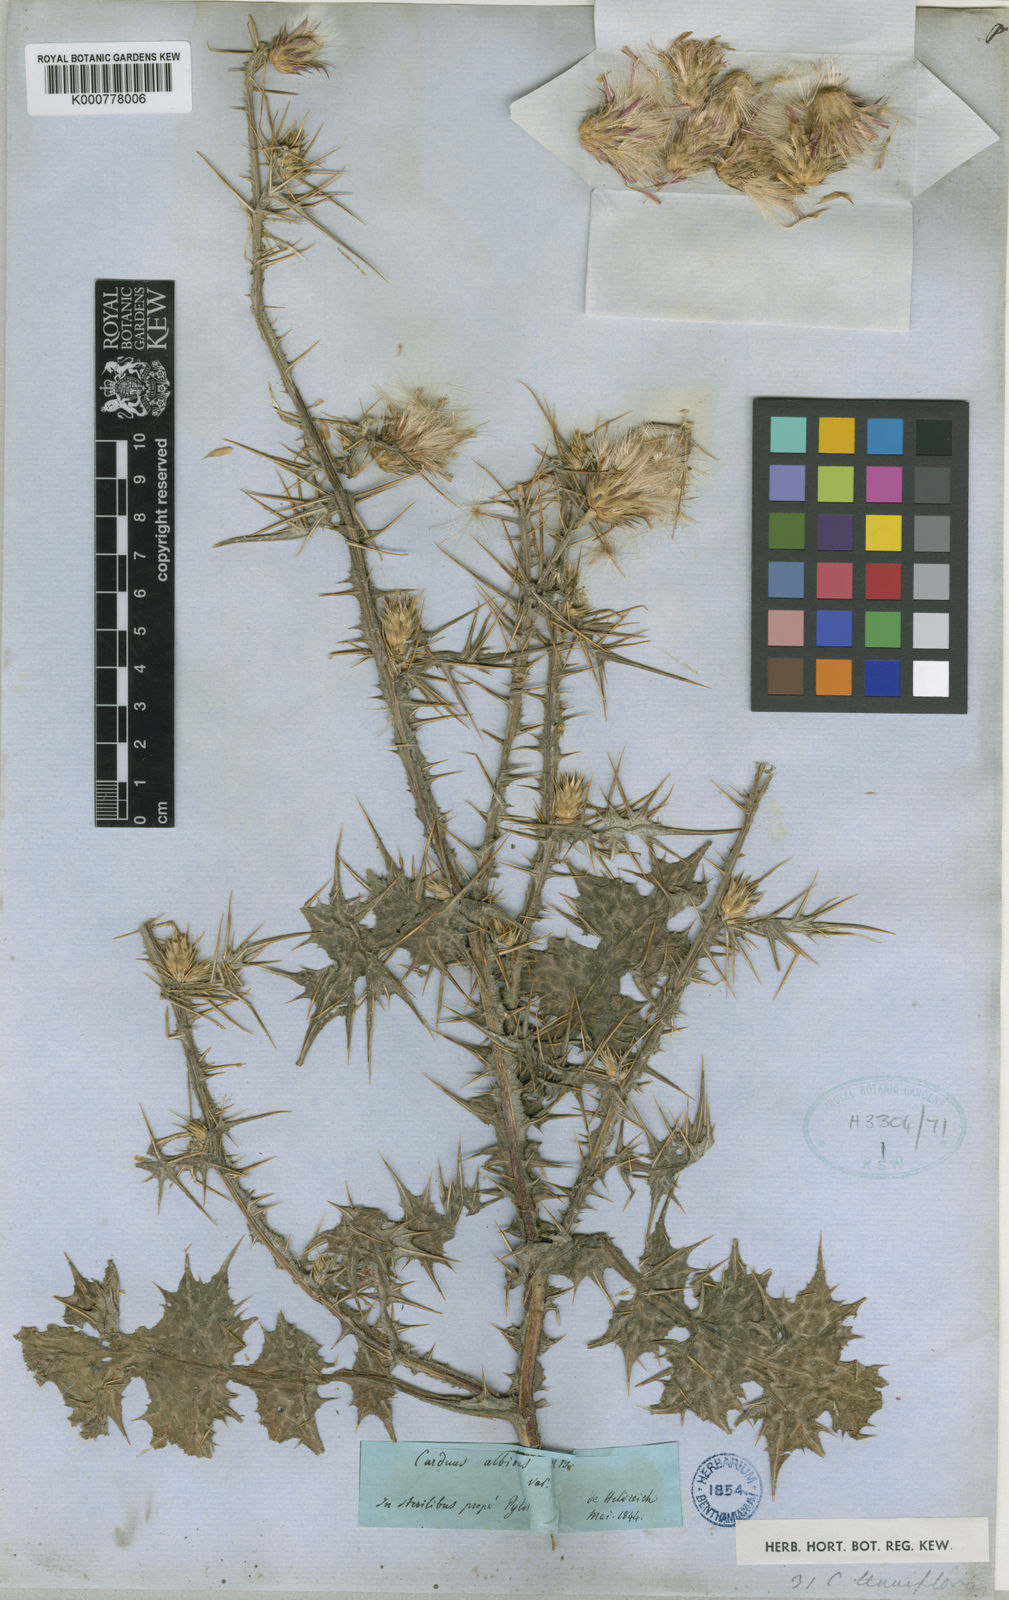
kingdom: Plantae
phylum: Tracheophyta
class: Magnoliopsida
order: Asterales
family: Asteraceae
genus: Carduus
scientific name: Carduus pycnocephalus
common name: Plymouth thistle
